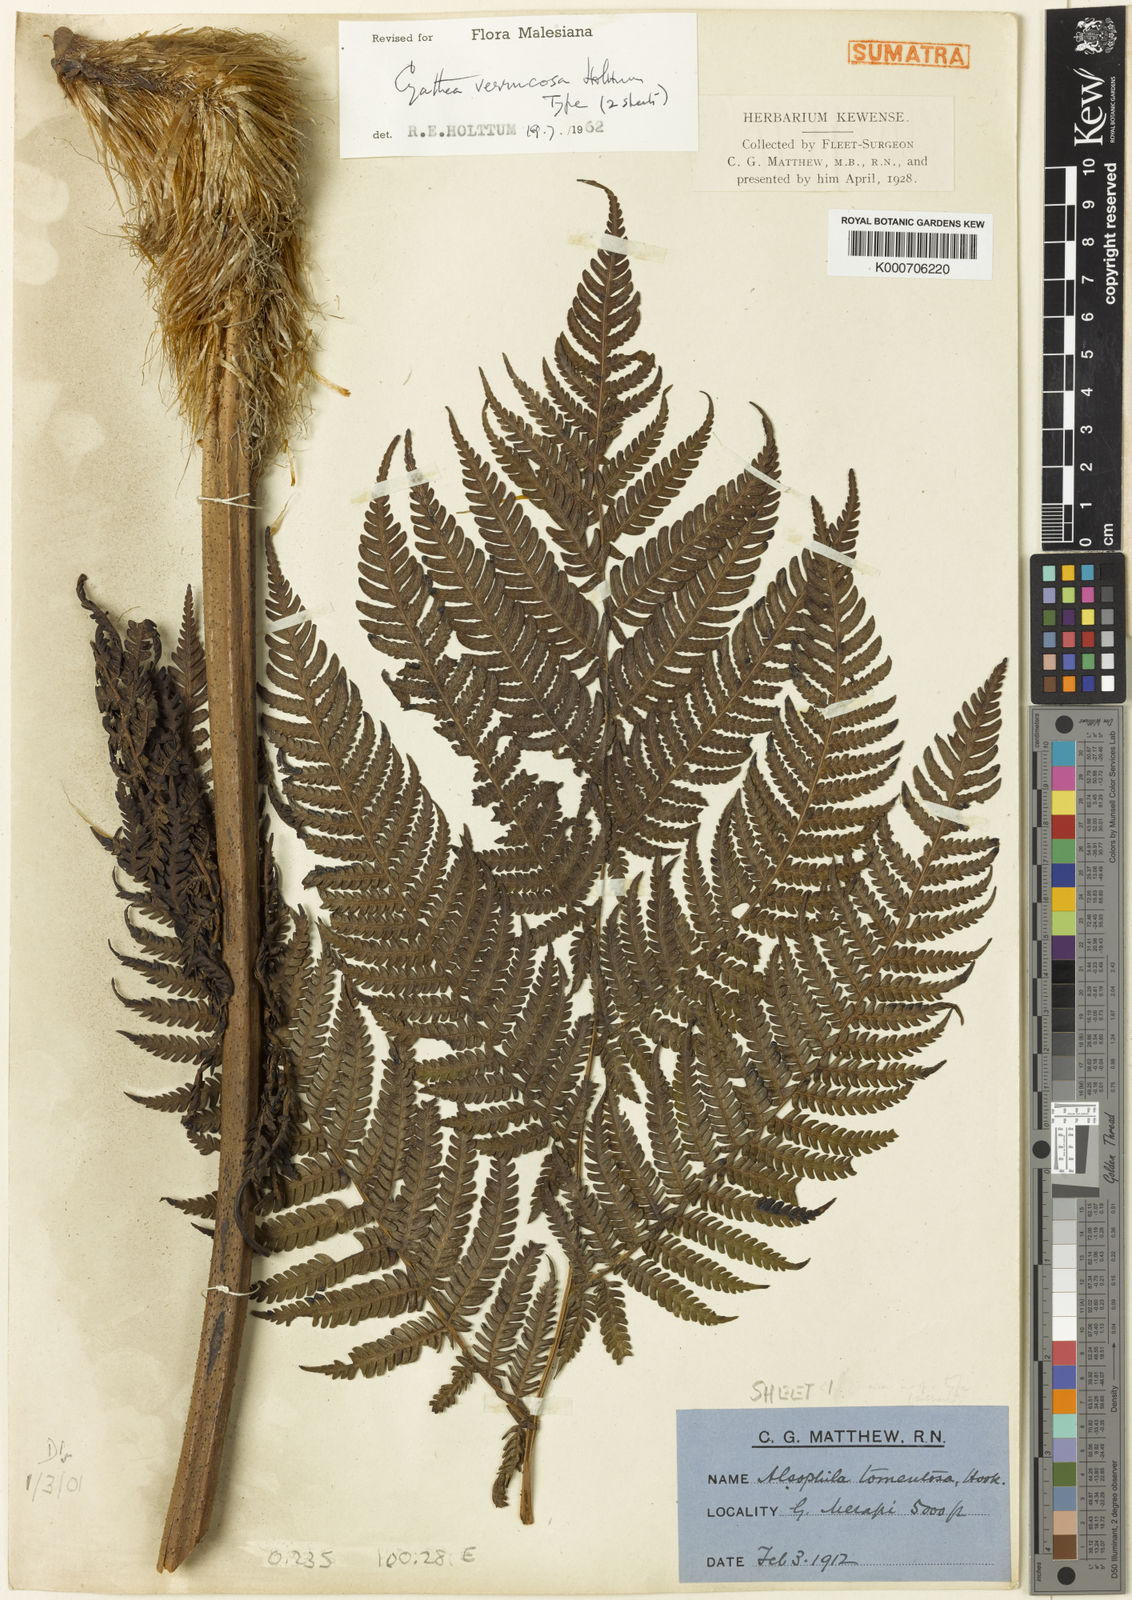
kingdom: Plantae
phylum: Tracheophyta
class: Polypodiopsida
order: Cyatheales
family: Cyatheaceae
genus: Sphaeropteris
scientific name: Sphaeropteris verrucosa
